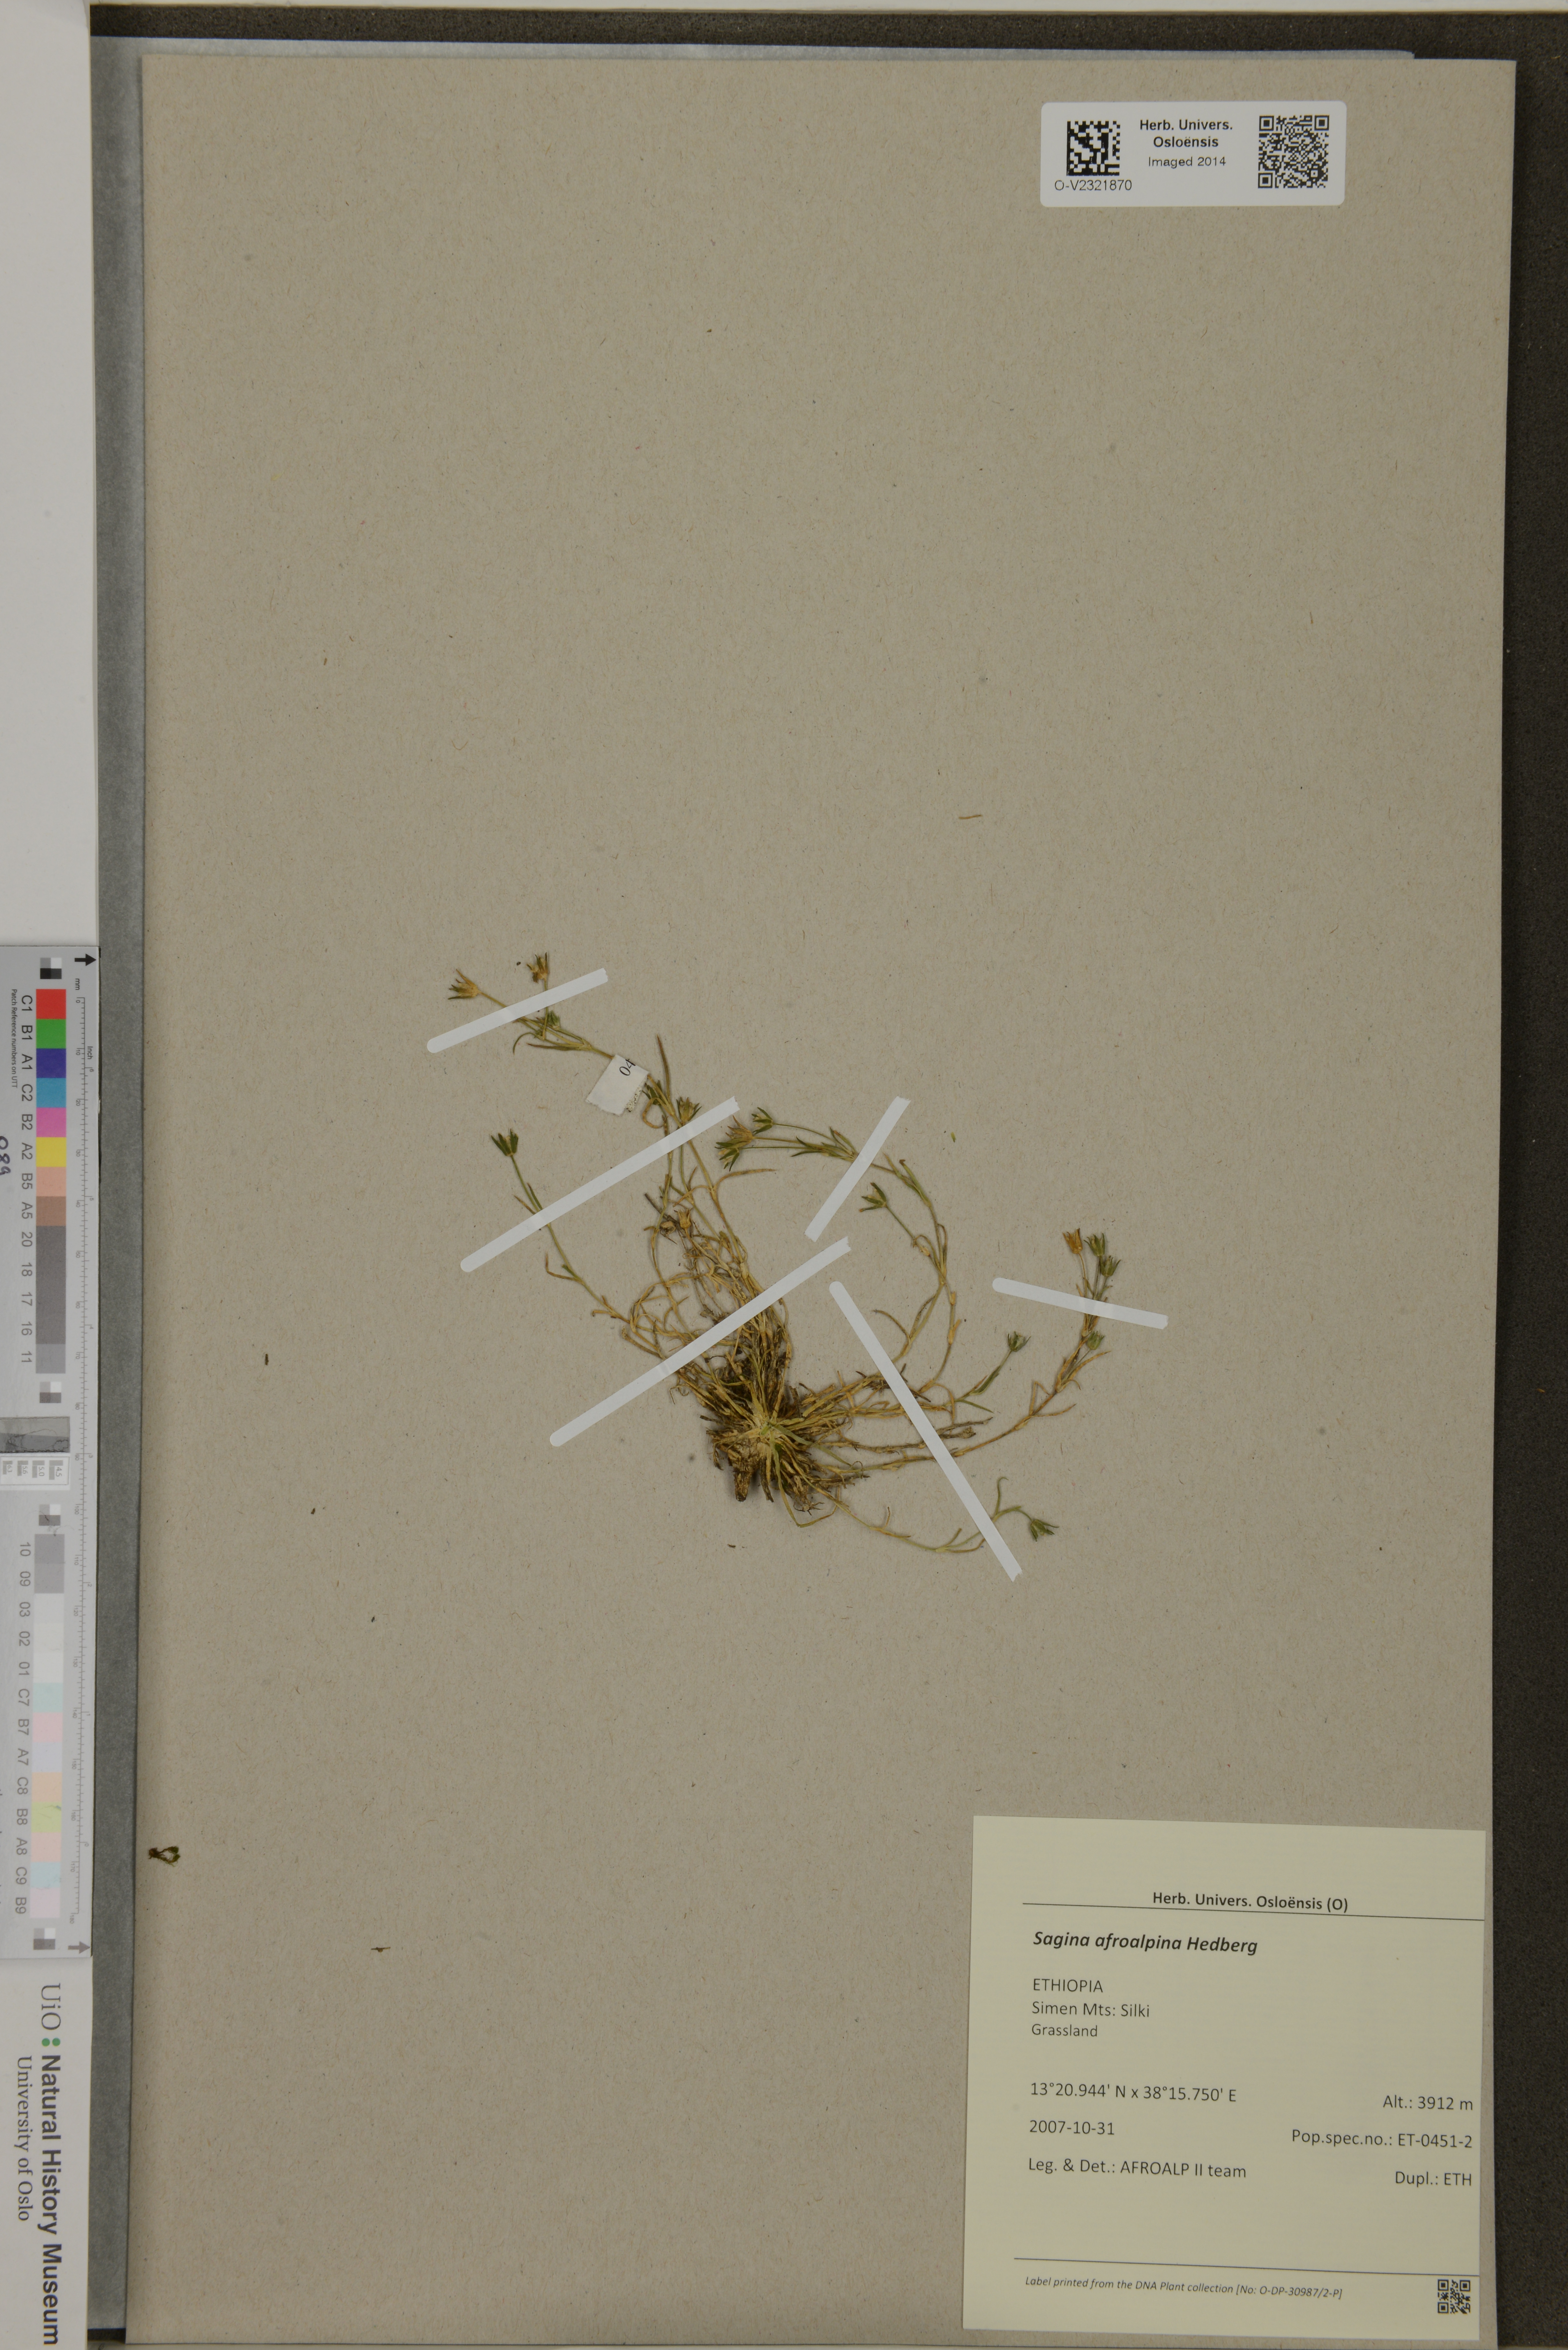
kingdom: Plantae
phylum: Tracheophyta
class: Magnoliopsida
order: Caryophyllales
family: Caryophyllaceae
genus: Sagina
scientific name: Sagina afroalpina
